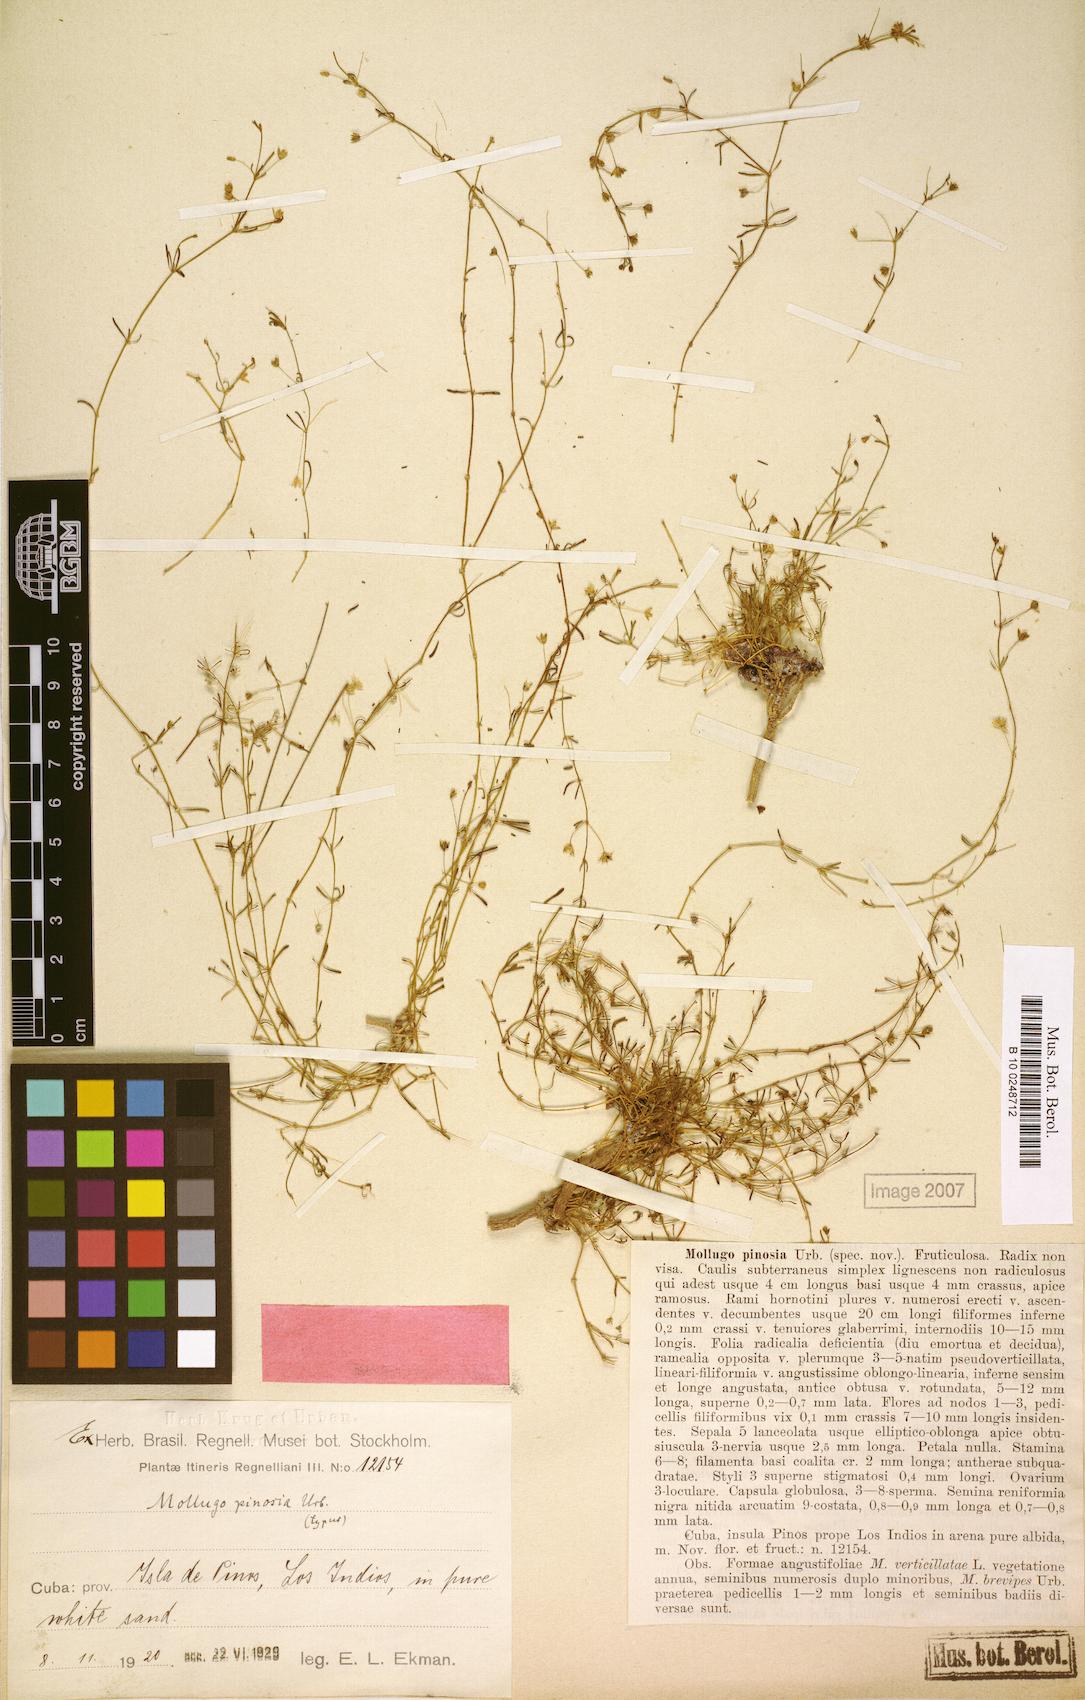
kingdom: Plantae
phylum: Tracheophyta
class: Magnoliopsida
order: Caryophyllales
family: Molluginaceae
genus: Mollugo
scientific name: Mollugo pinosia
